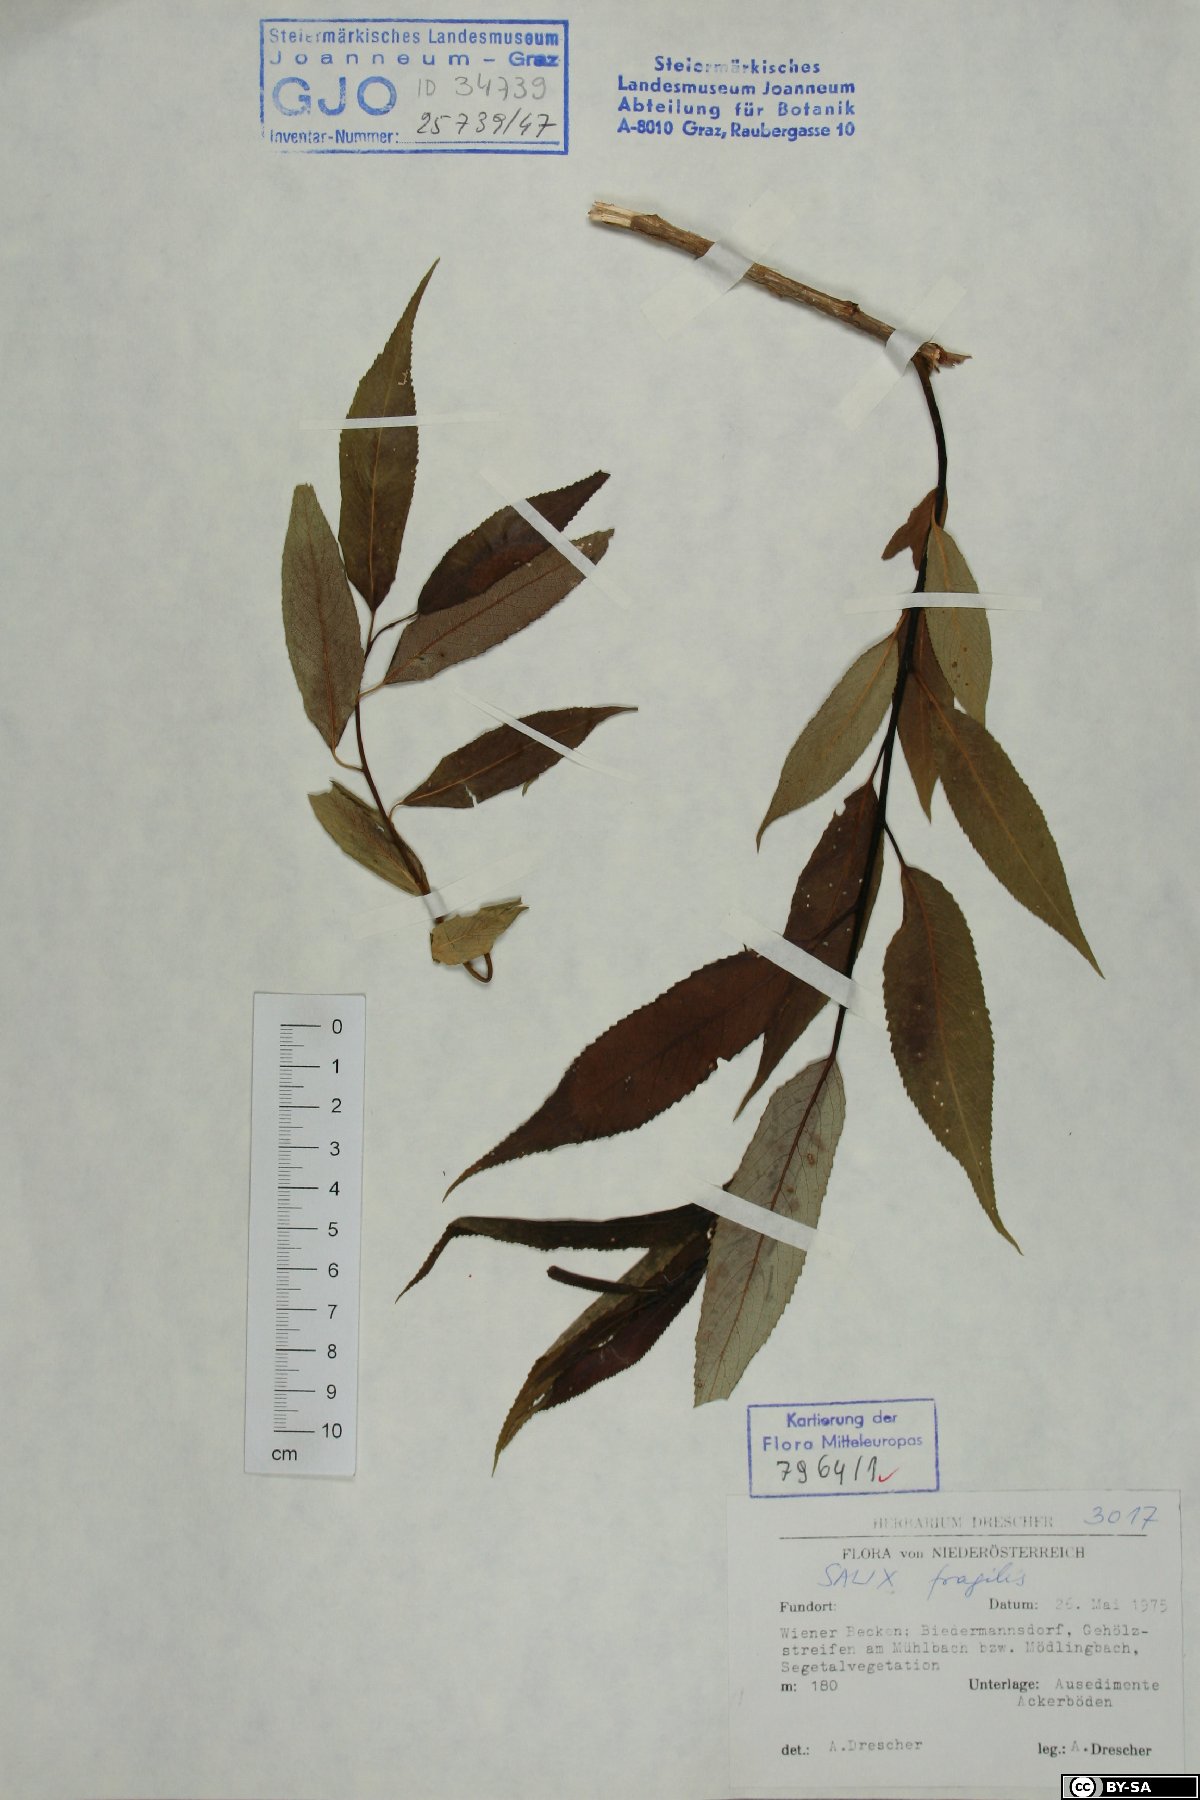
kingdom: Plantae
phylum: Tracheophyta
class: Magnoliopsida
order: Malpighiales
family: Salicaceae
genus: Salix
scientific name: Salix fragilis
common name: Crack willow
